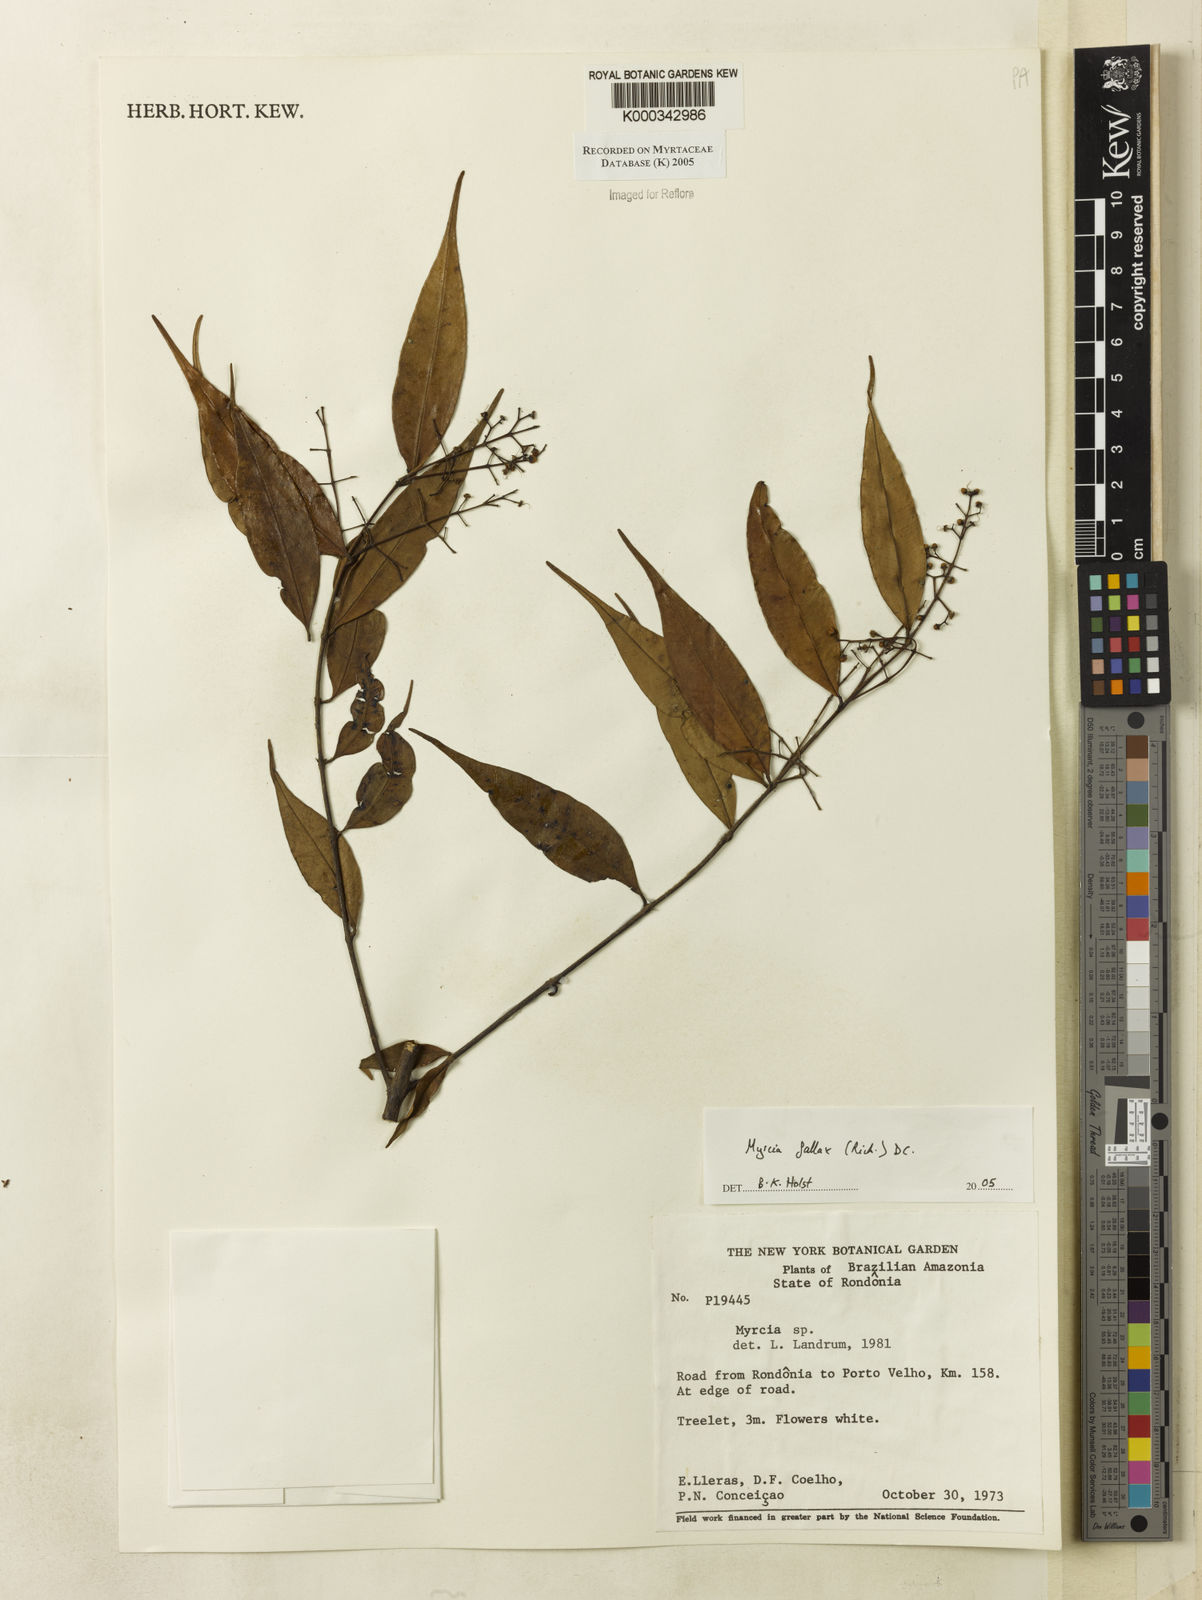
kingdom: Plantae
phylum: Tracheophyta
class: Magnoliopsida
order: Myrtales
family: Myrtaceae
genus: Myrcia
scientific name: Myrcia splendens
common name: Surinam cherry
